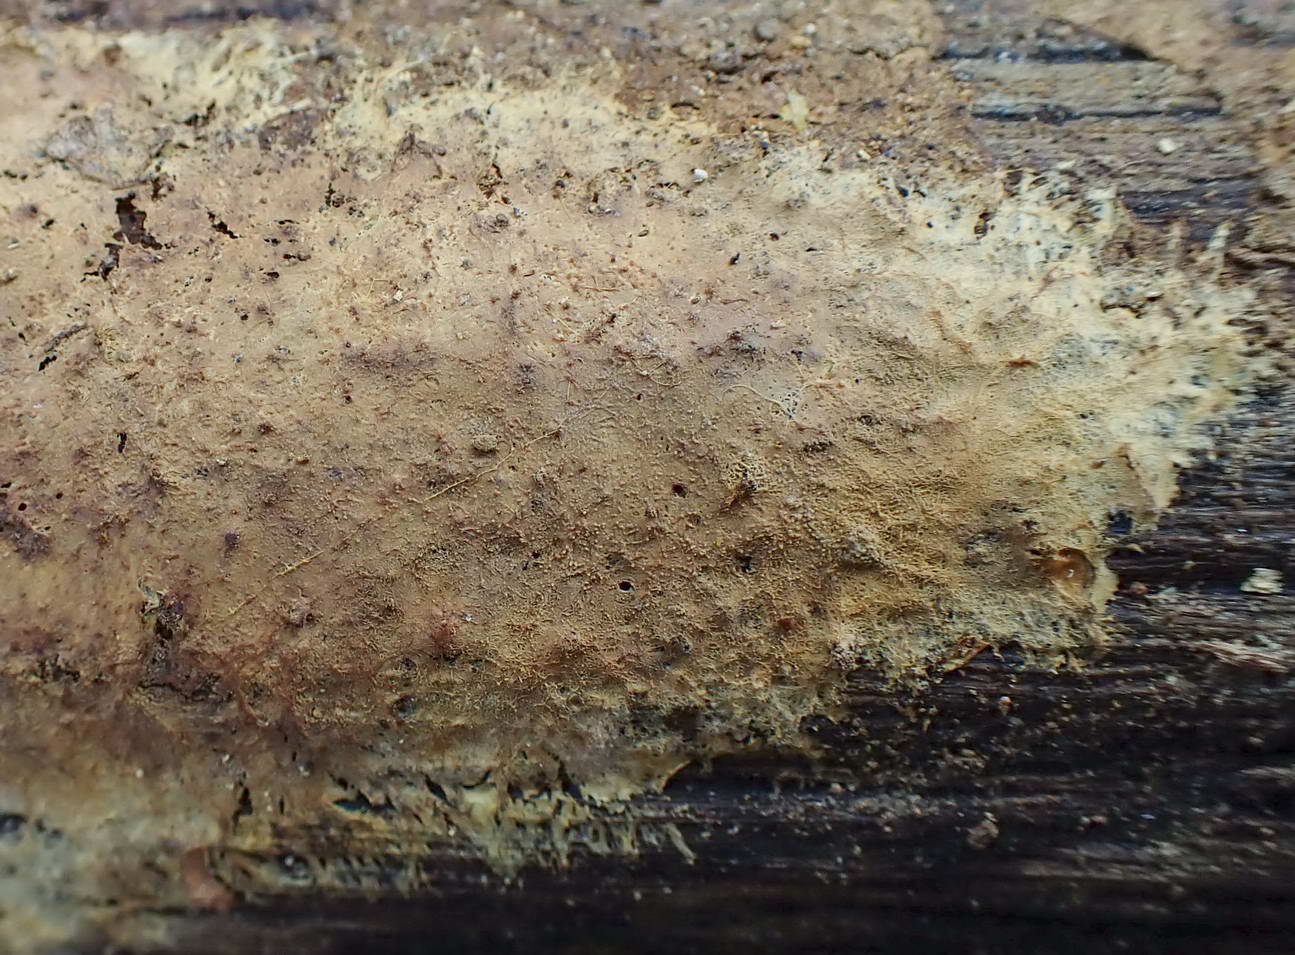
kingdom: Fungi
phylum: Basidiomycota
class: Agaricomycetes
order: Russulales
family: Xenasmataceae
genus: Xenasmatella
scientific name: Xenasmatella vaga
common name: svovl-strenghinde
